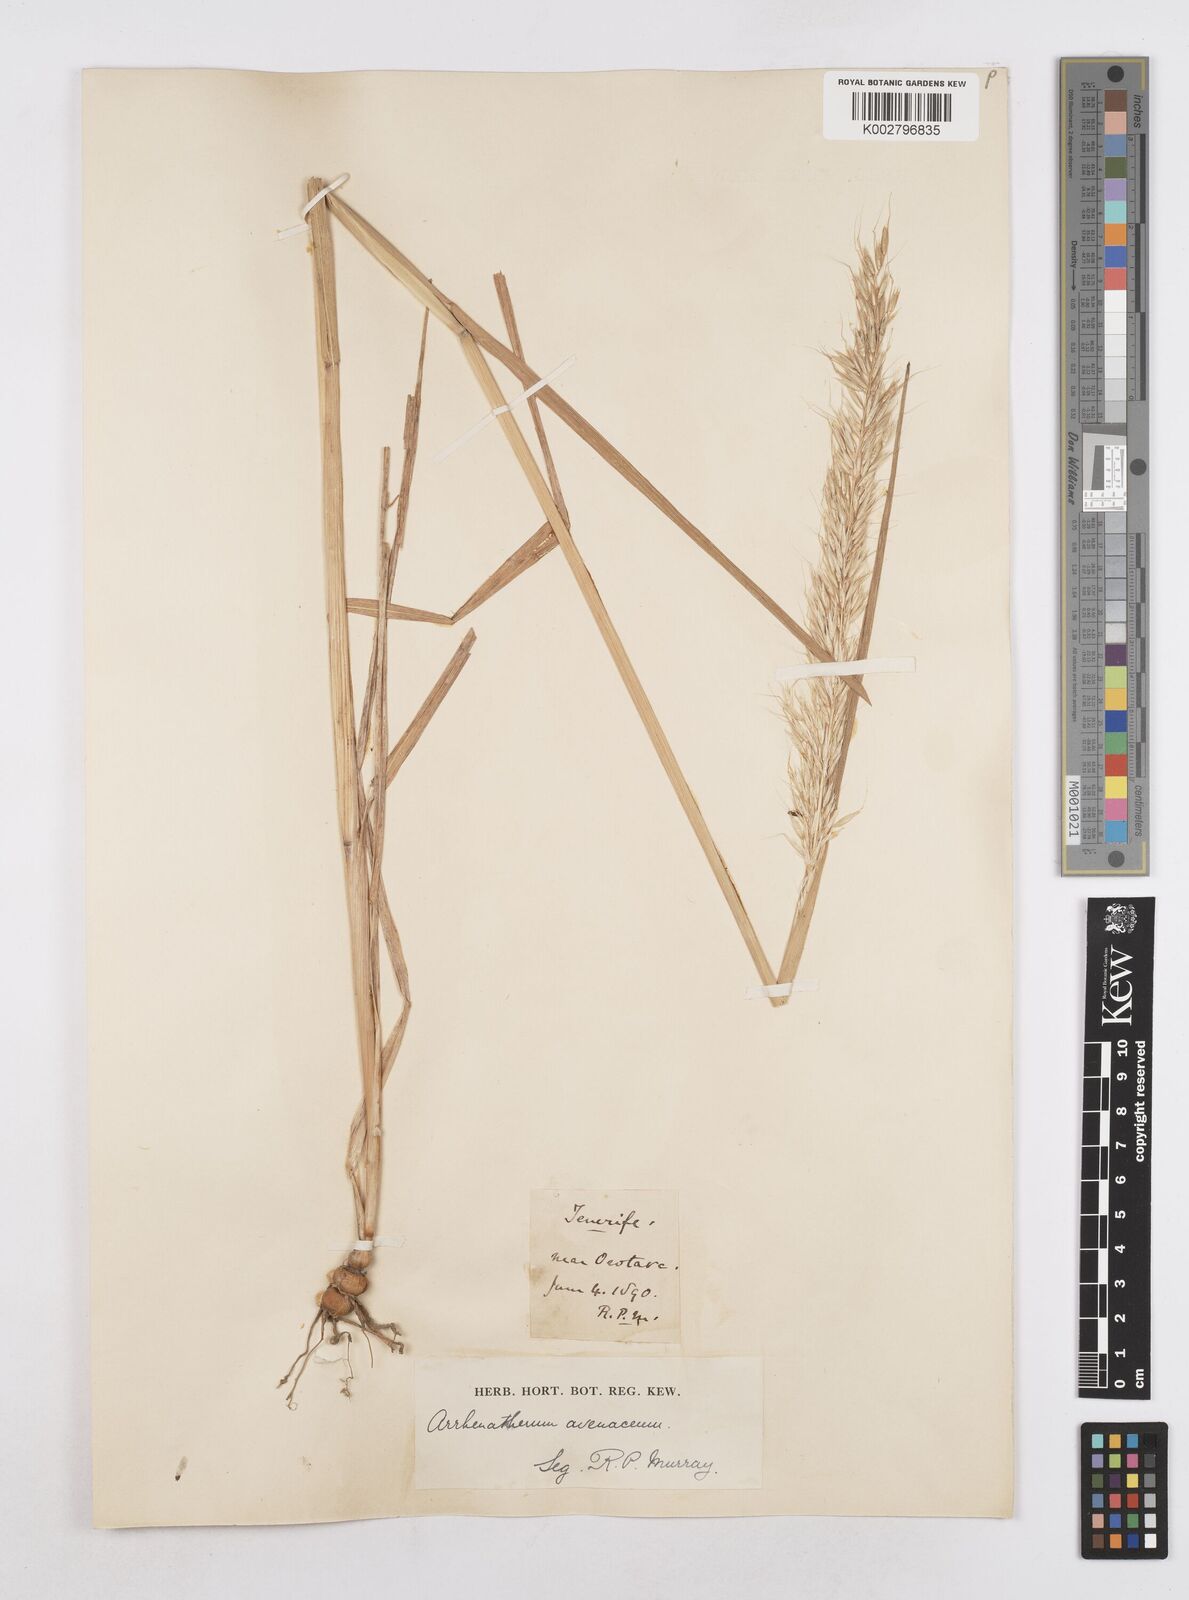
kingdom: Plantae
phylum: Tracheophyta
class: Liliopsida
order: Poales
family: Poaceae
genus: Arrhenatherum
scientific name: Arrhenatherum elatius
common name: Tall oatgrass
